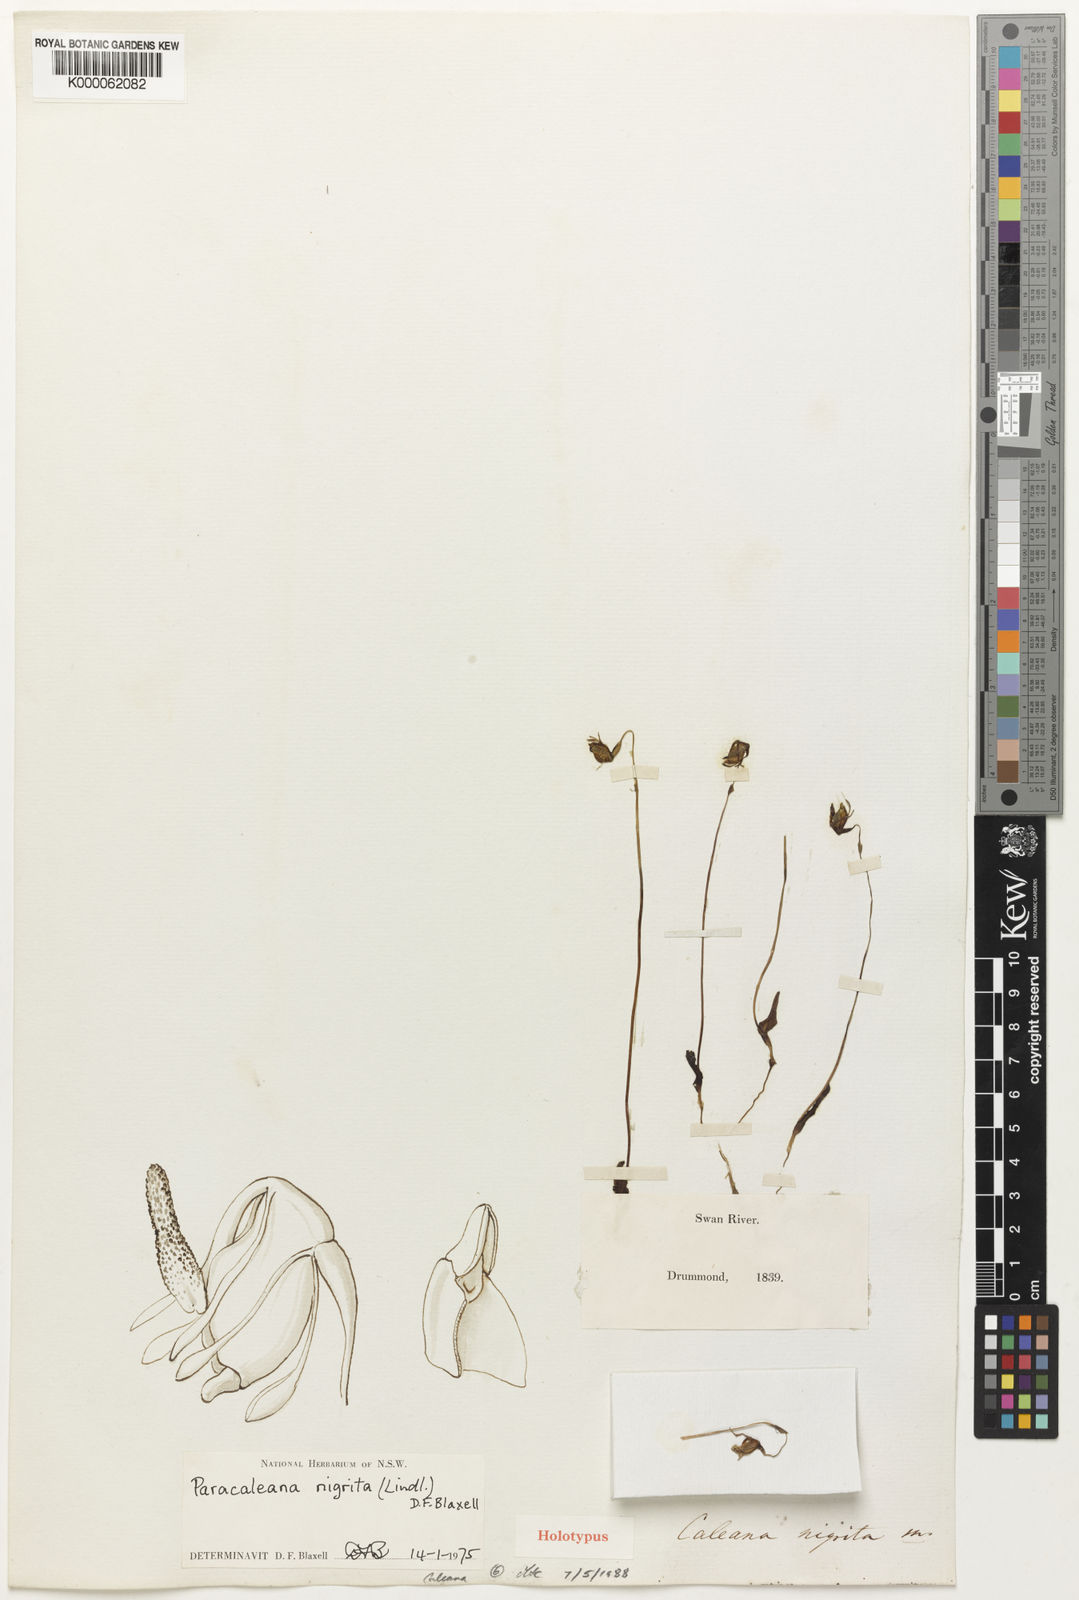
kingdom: Plantae
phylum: Tracheophyta
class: Liliopsida
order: Asparagales
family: Orchidaceae
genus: Caleana
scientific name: Caleana nigrita
